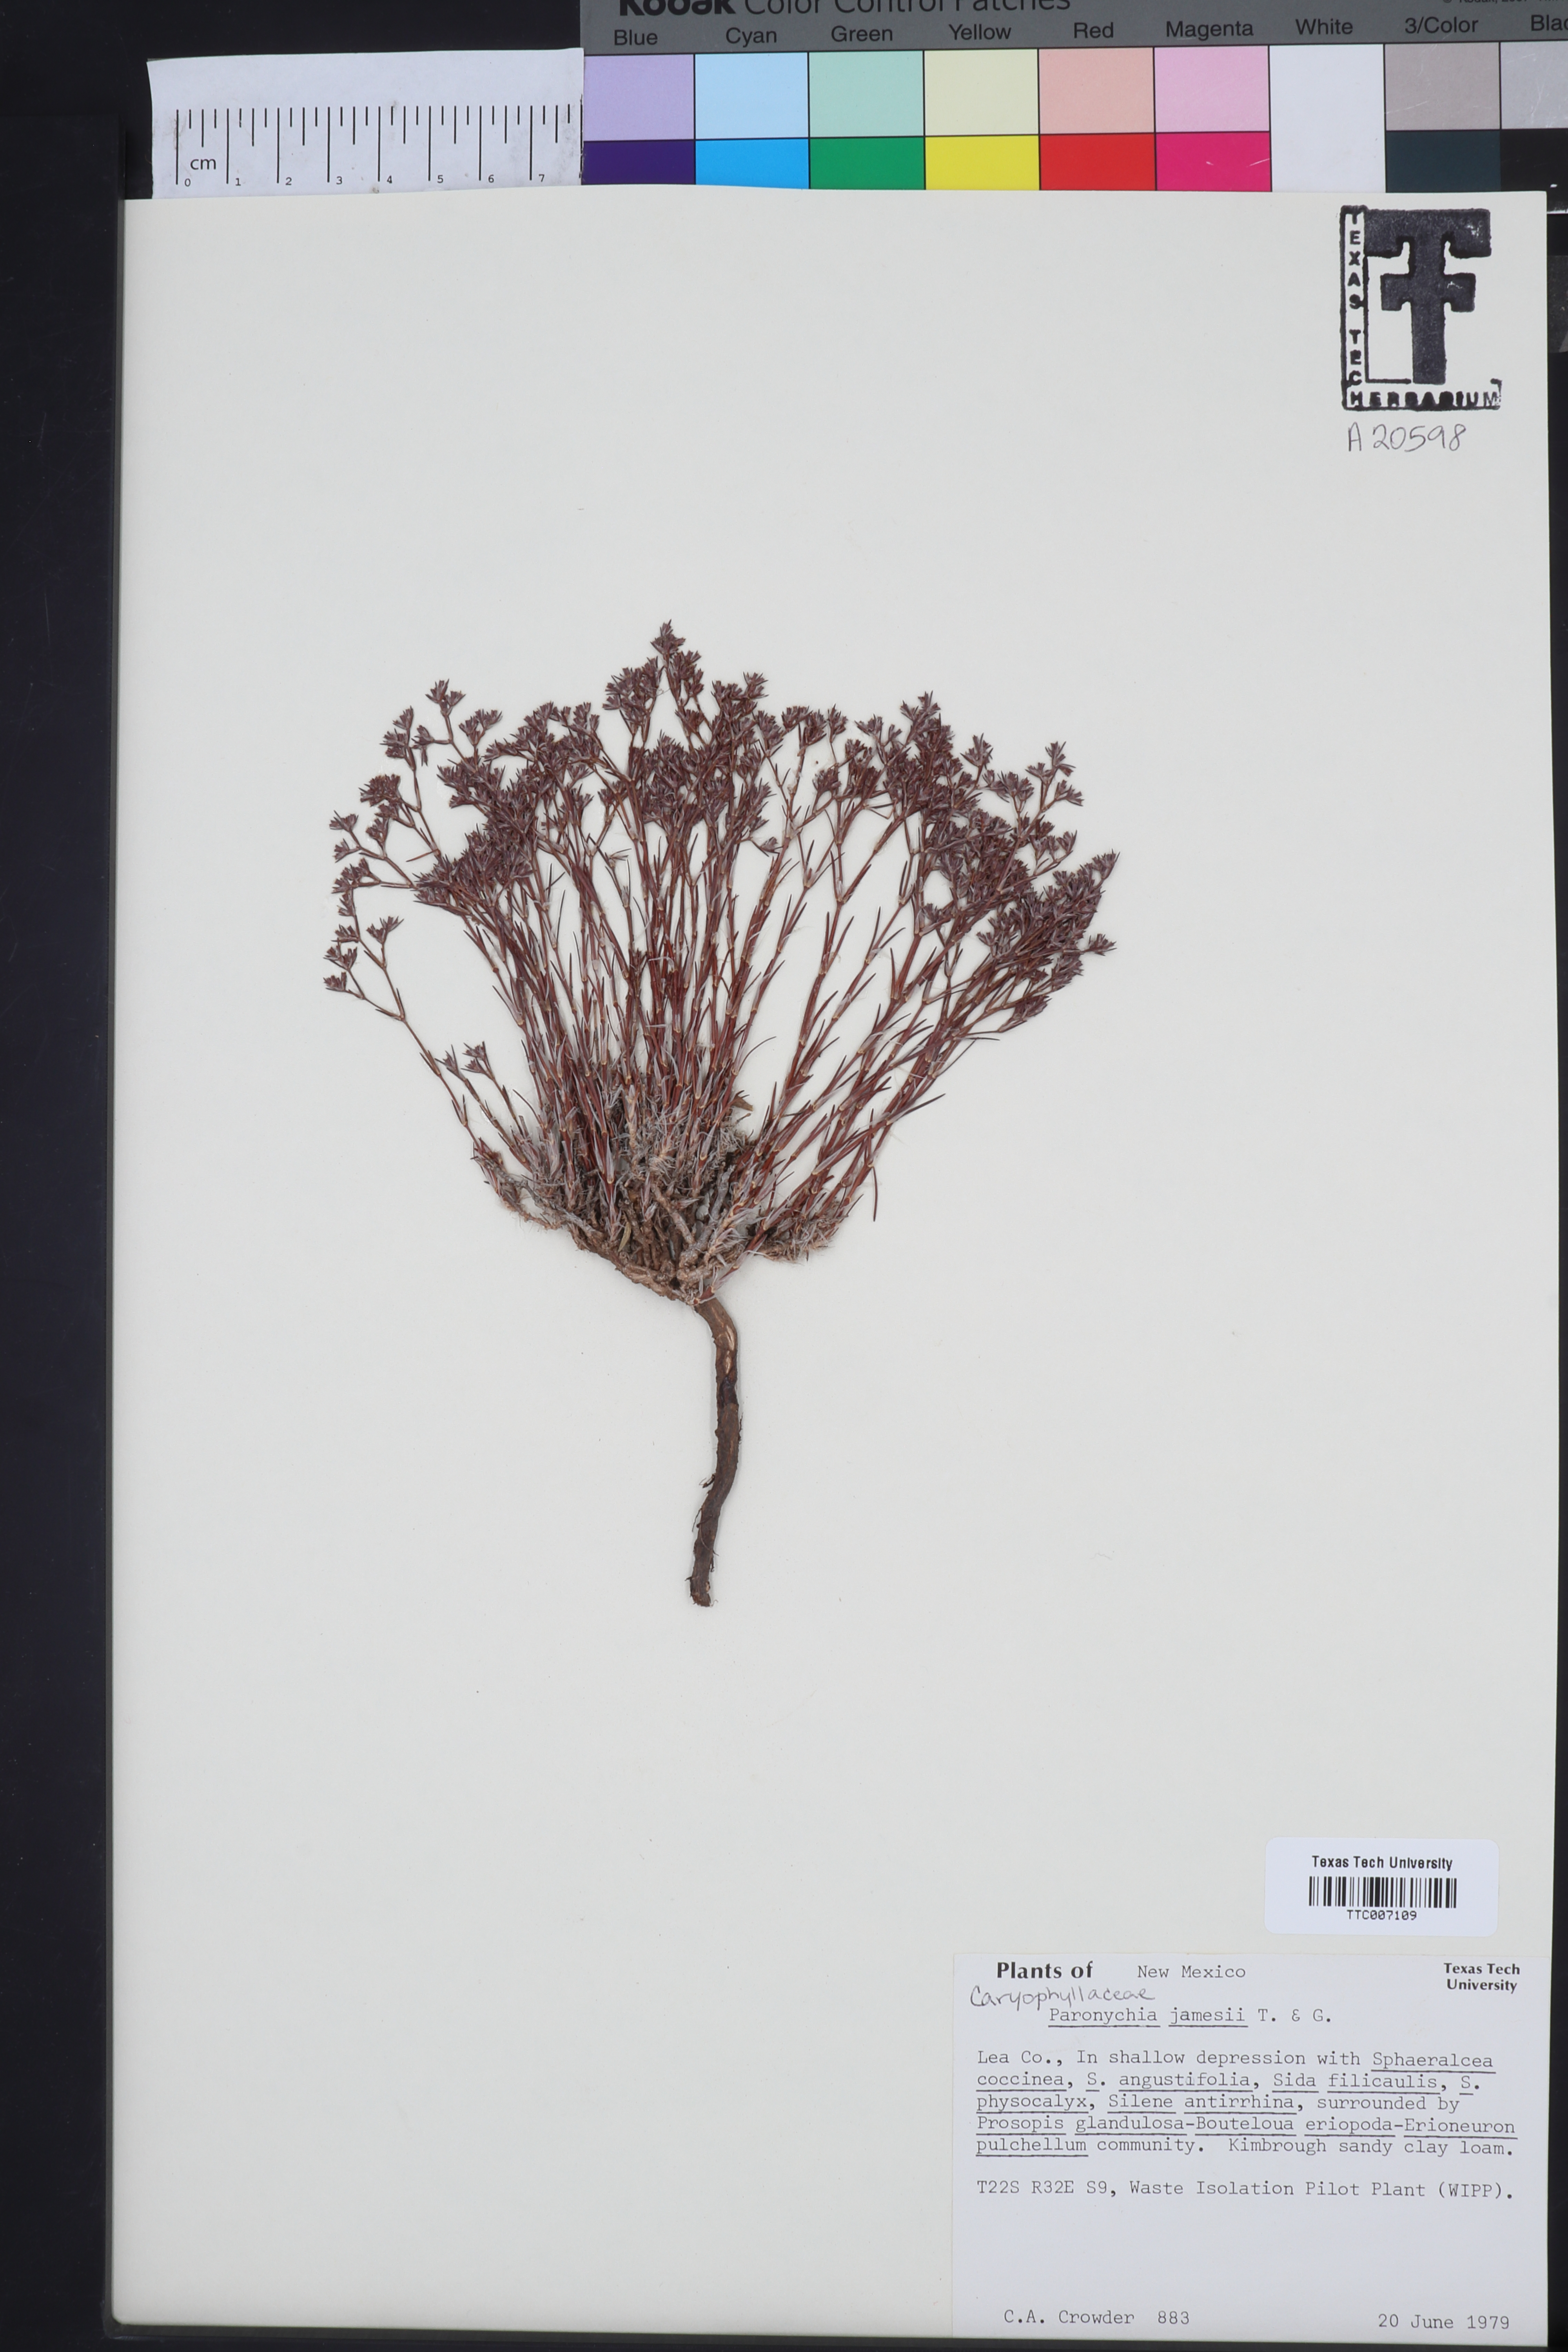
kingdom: Plantae
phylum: Tracheophyta
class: Magnoliopsida
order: Caryophyllales
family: Caryophyllaceae
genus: Paronychia
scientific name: Paronychia jamesii
